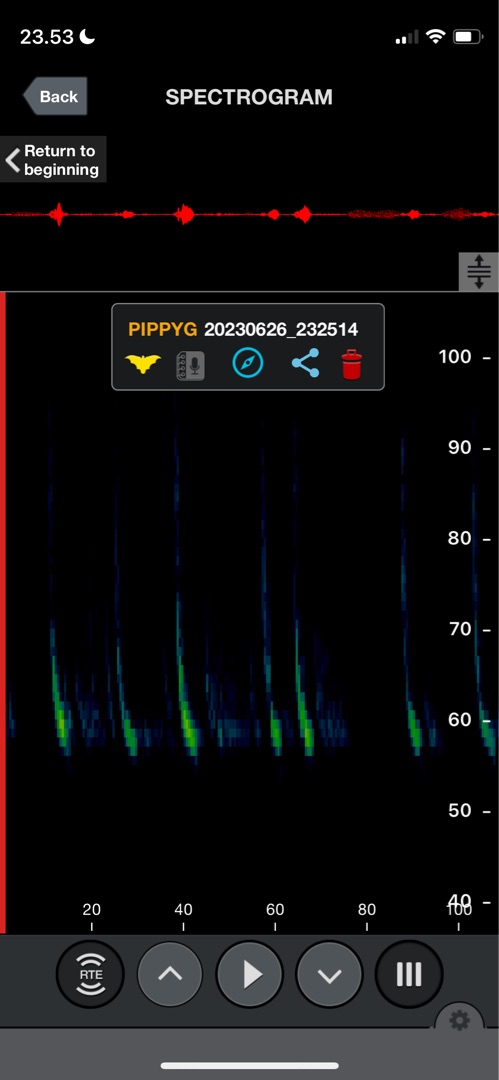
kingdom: Animalia
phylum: Chordata
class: Mammalia
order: Chiroptera
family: Vespertilionidae
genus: Pipistrellus
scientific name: Pipistrellus pygmaeus
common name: Dværgflagermus
